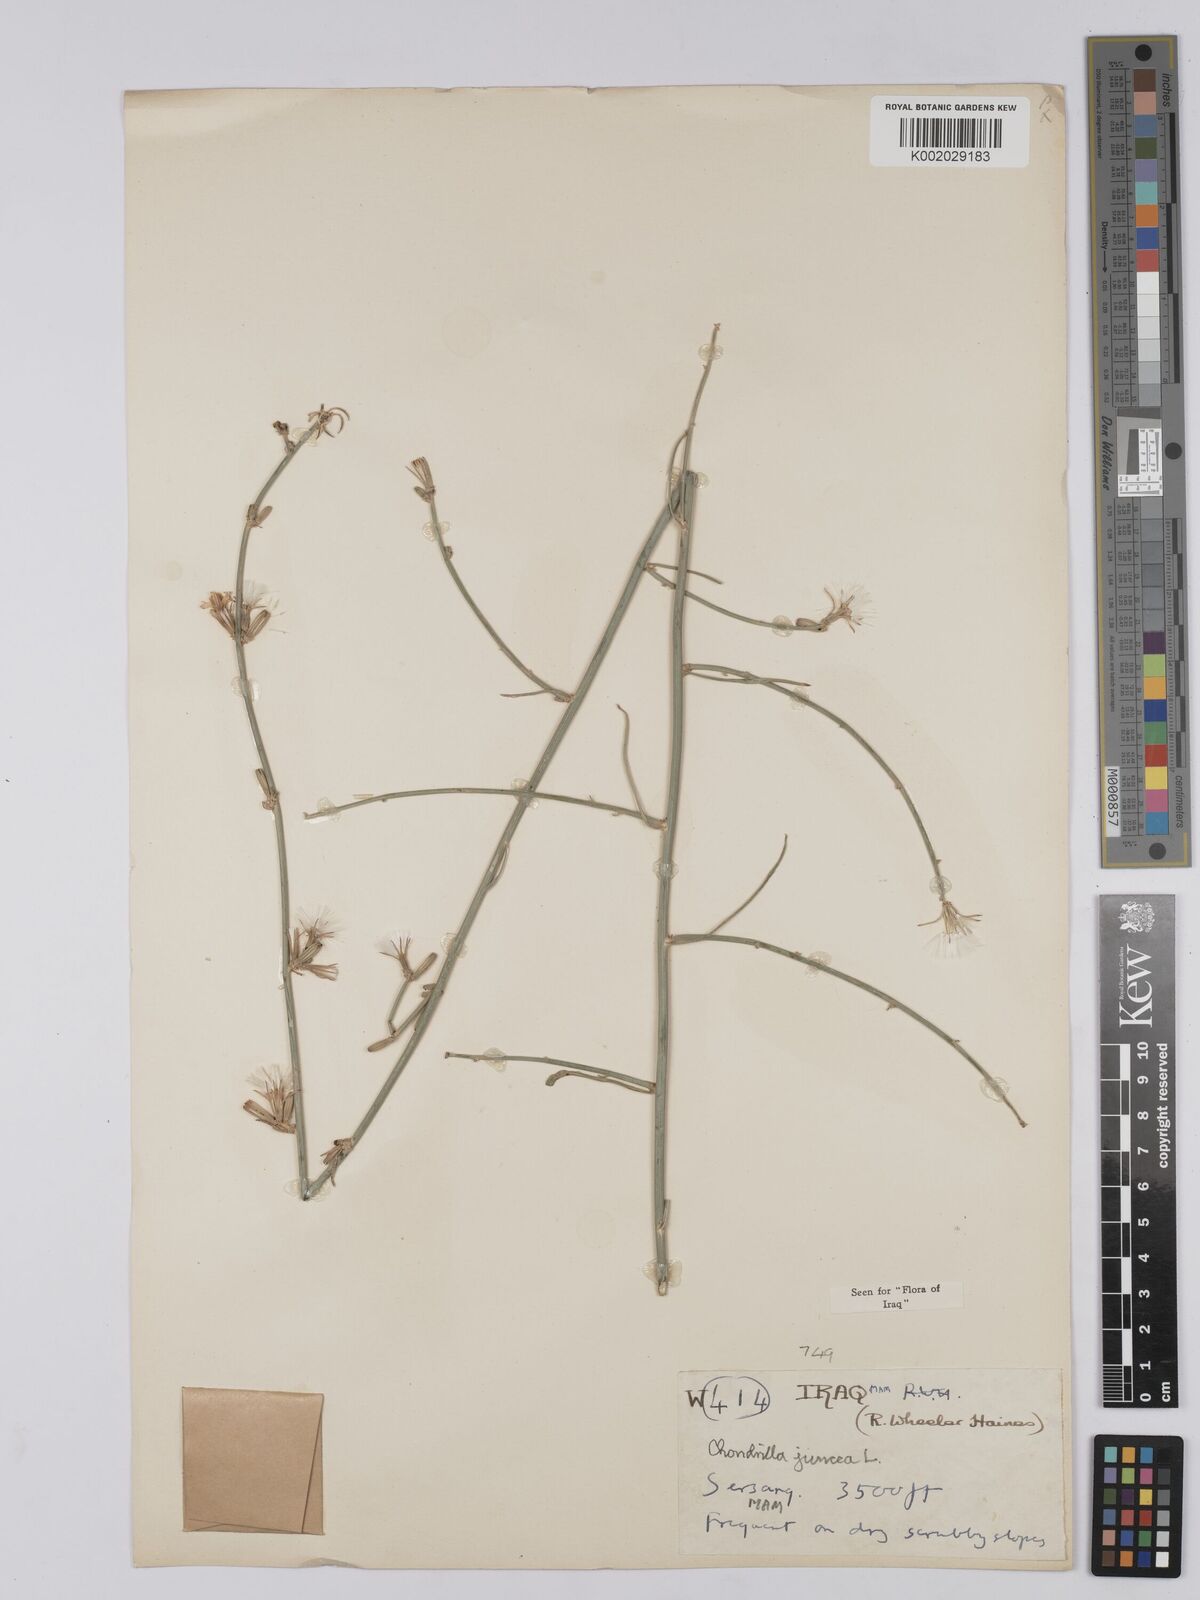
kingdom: Plantae
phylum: Tracheophyta
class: Magnoliopsida
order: Asterales
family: Asteraceae
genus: Chondrilla
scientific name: Chondrilla juncea
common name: Skeleton weed
